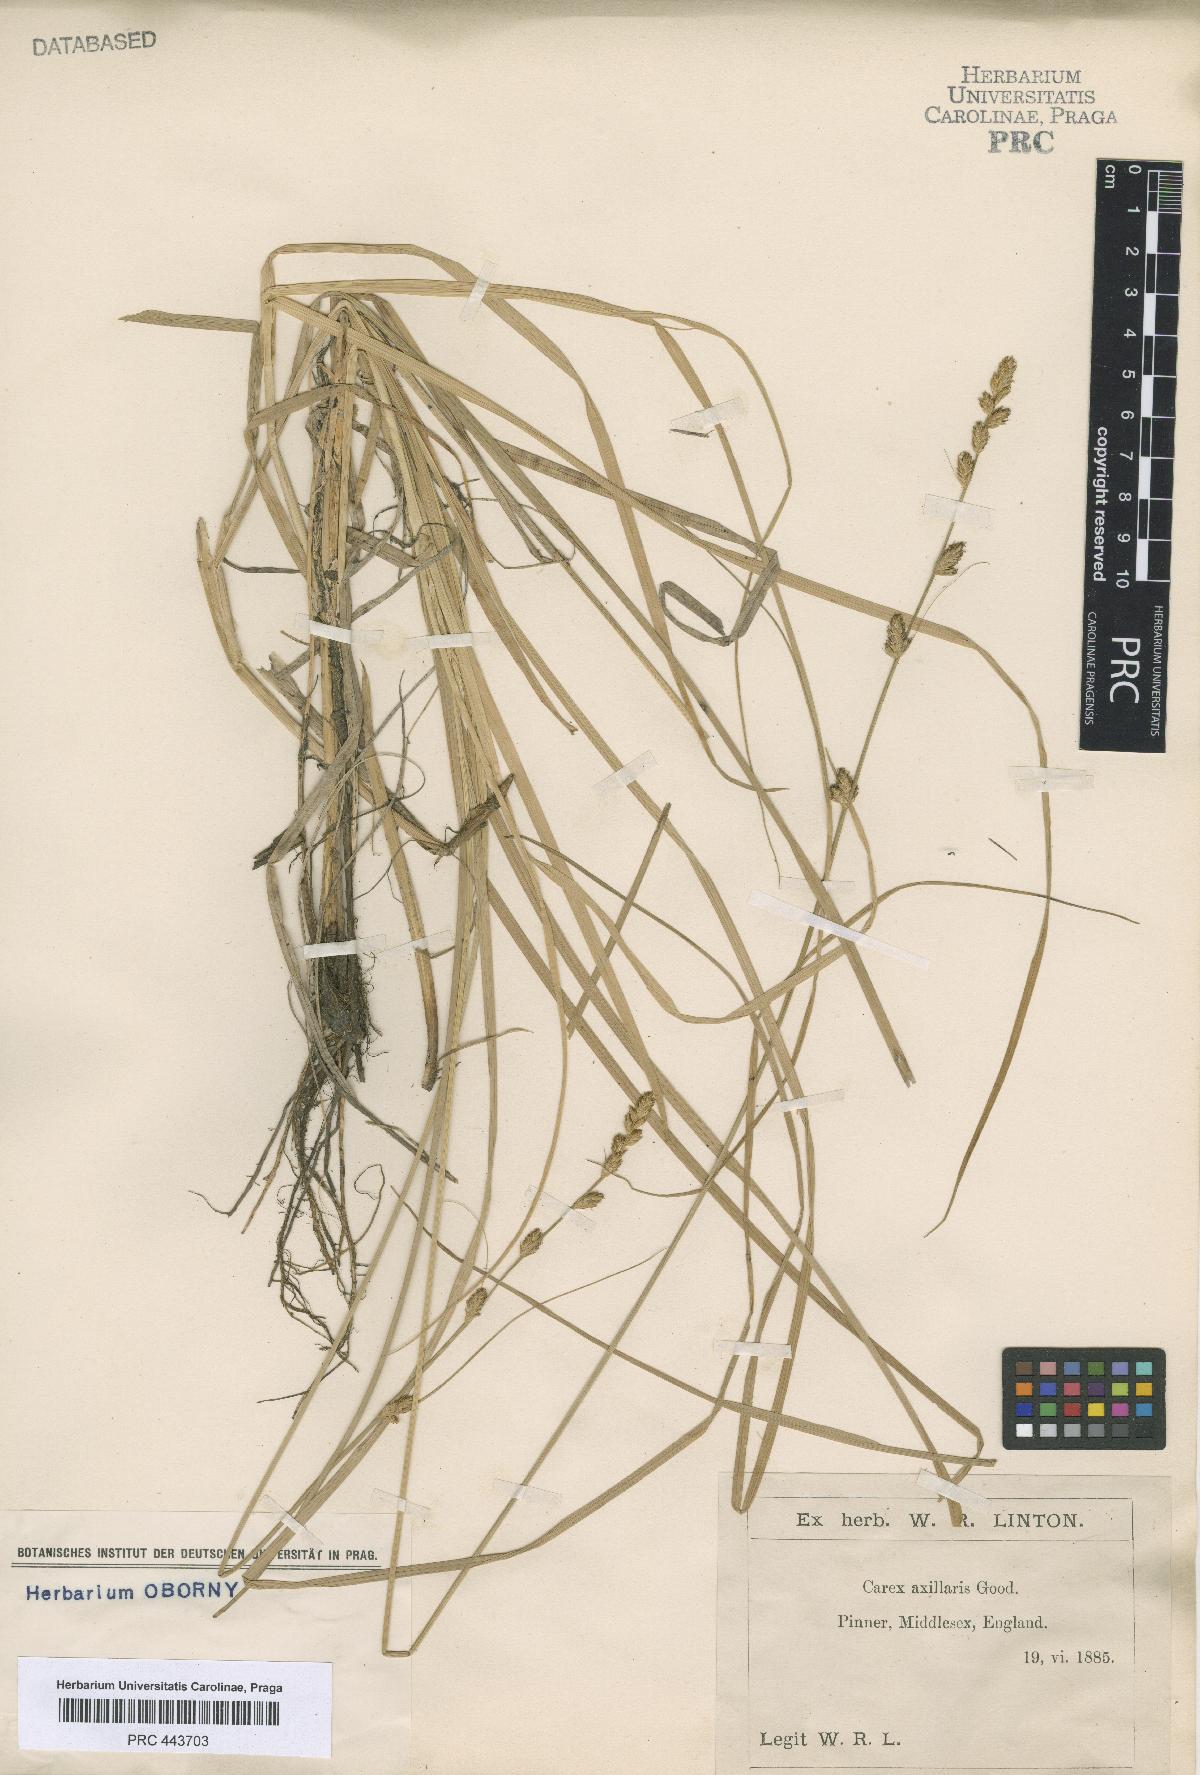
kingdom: Plantae
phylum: Tracheophyta
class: Liliopsida
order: Poales
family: Cyperaceae
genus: Carex
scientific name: Carex pseudoaxillaris
